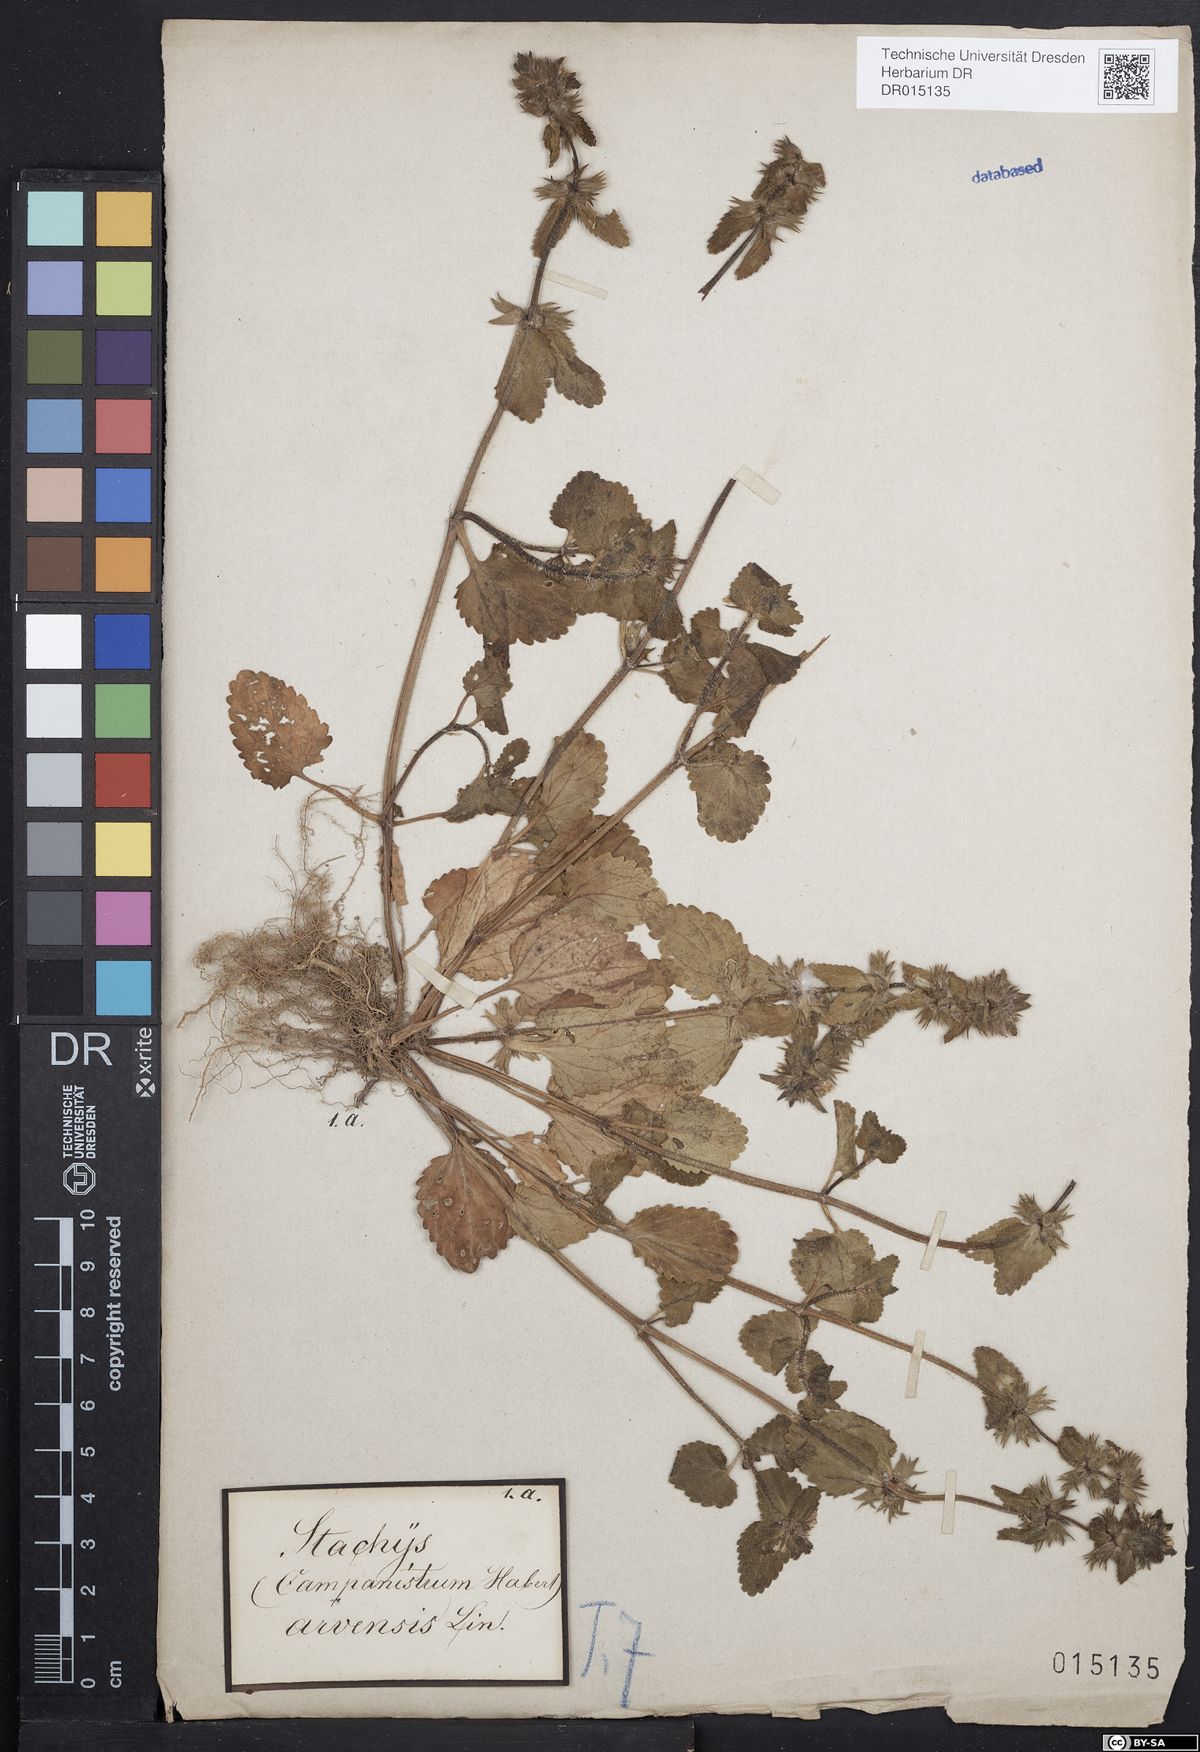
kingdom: Plantae
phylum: Tracheophyta
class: Magnoliopsida
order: Lamiales
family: Lamiaceae
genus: Stachys
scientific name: Stachys arvensis
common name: Field woundwort
